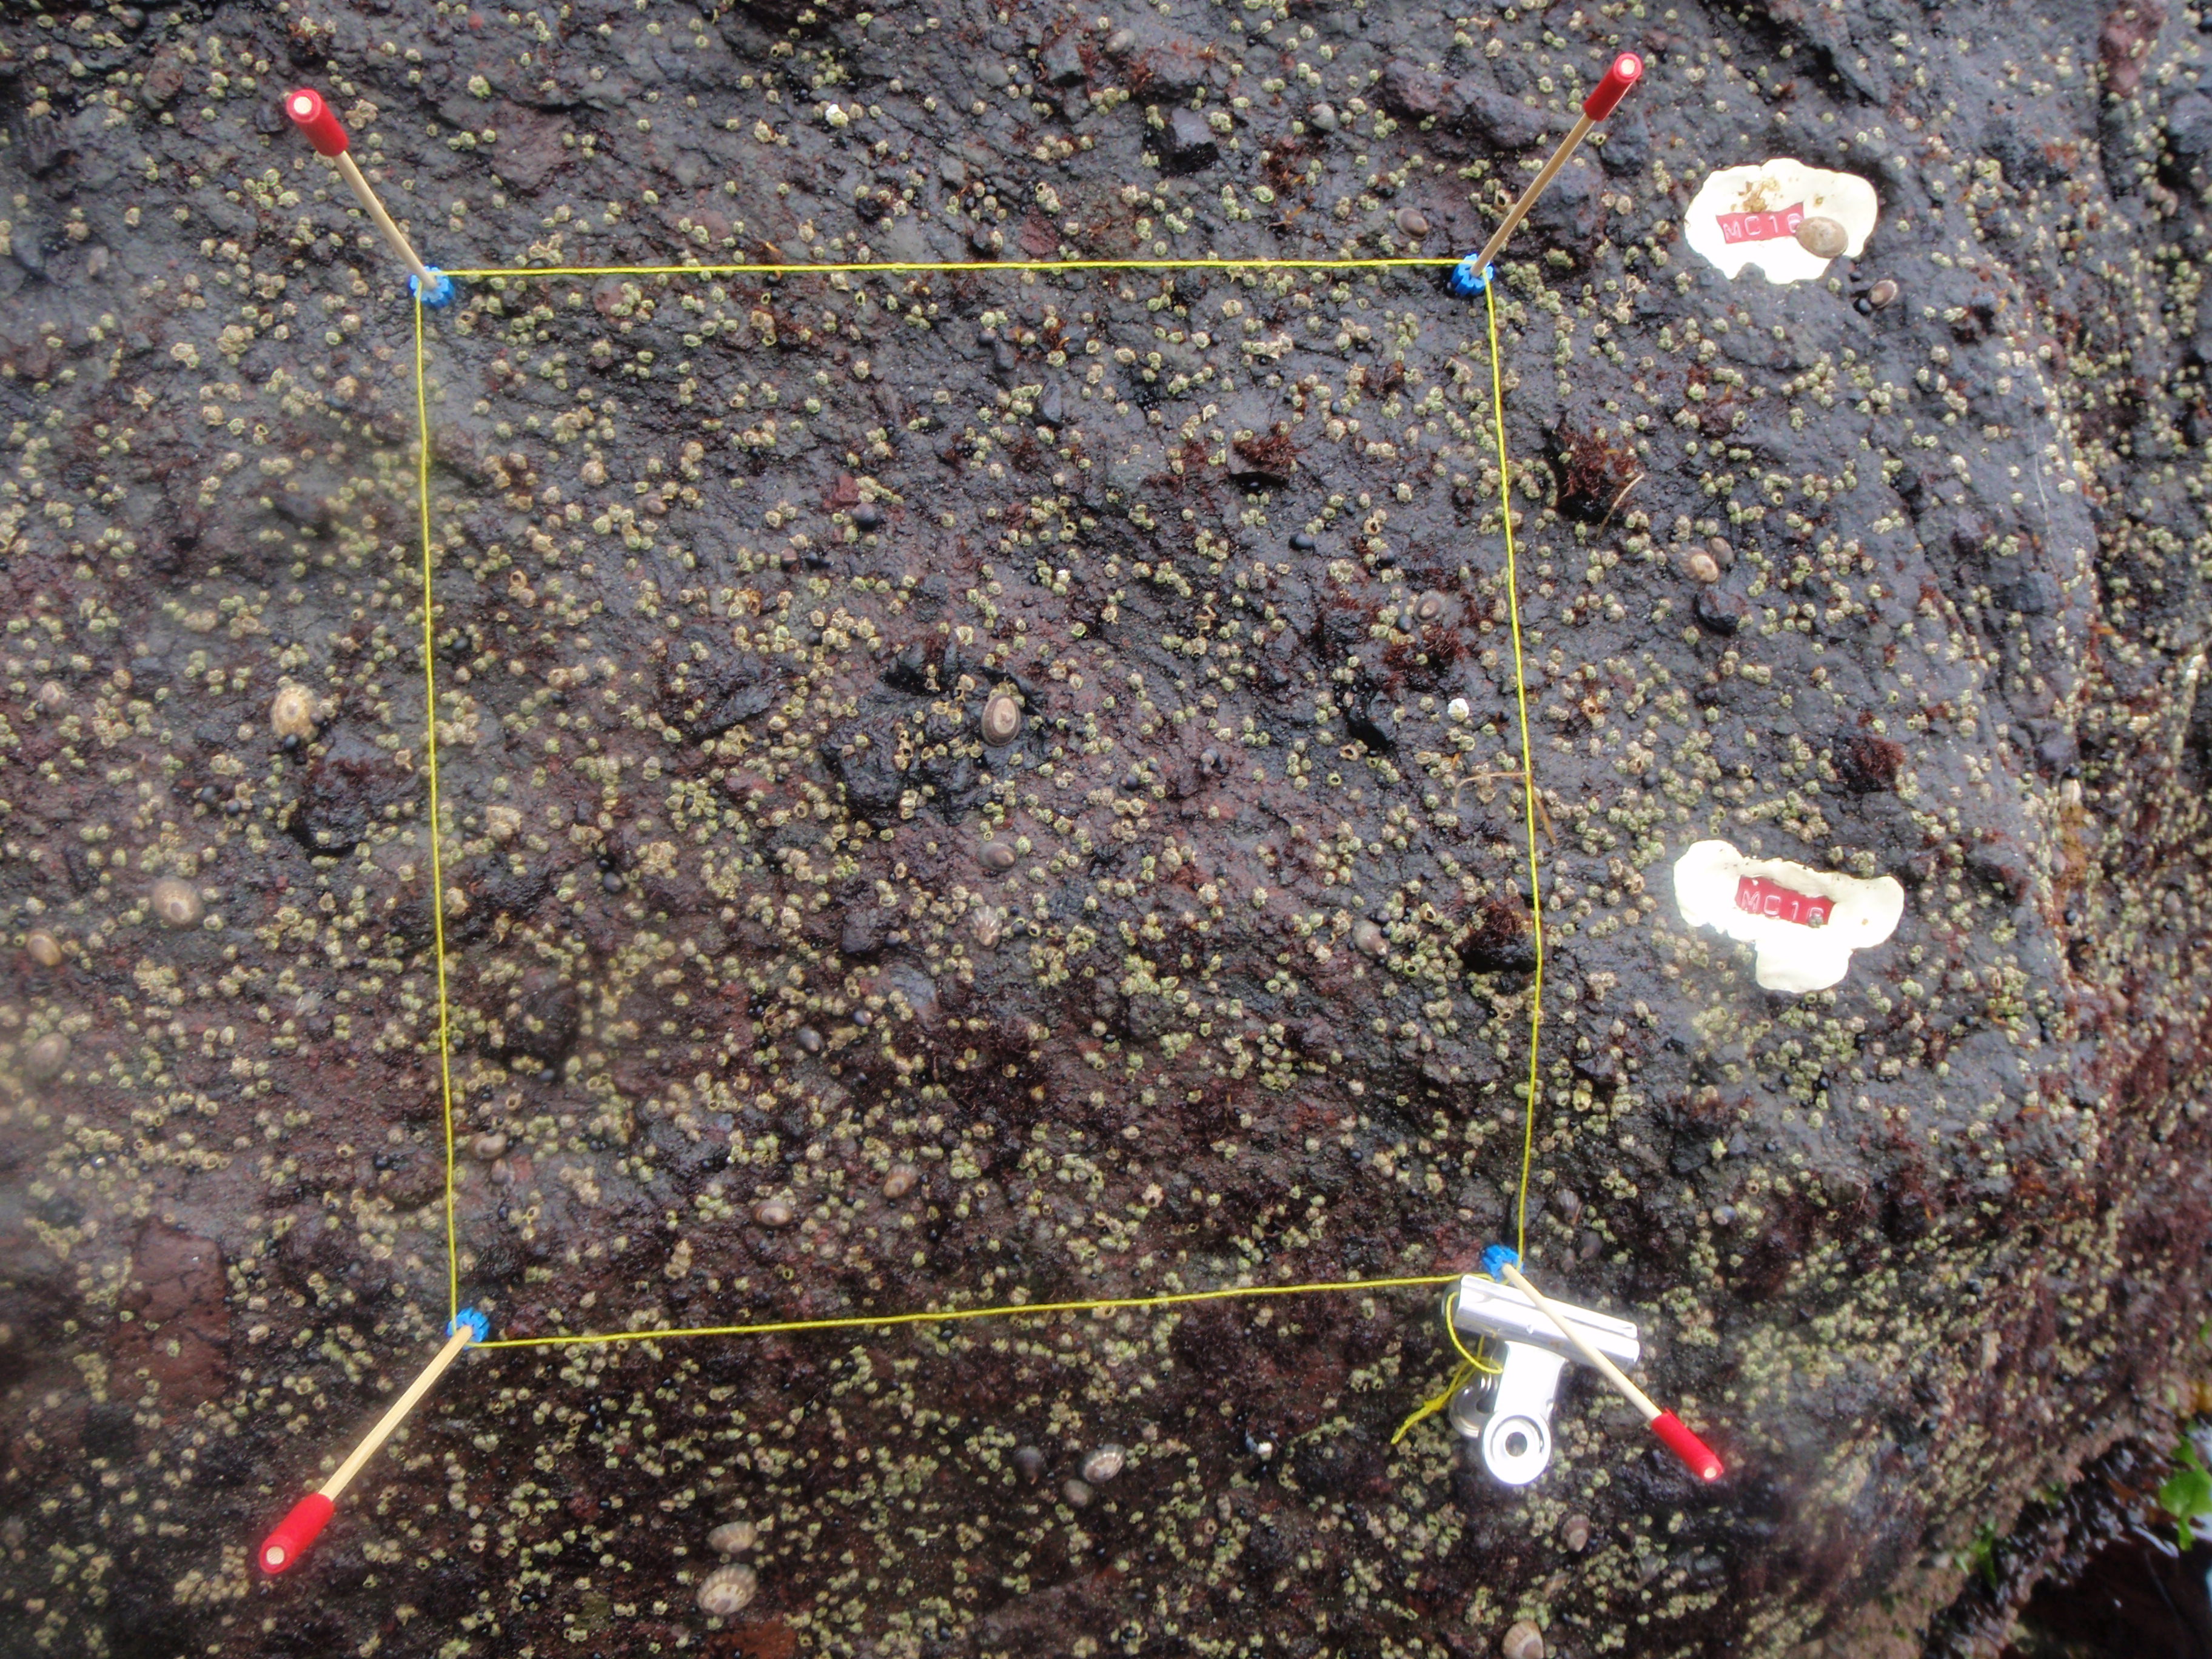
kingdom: Animalia
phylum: Arthropoda
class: Maxillopoda
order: Sessilia
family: Chthamalidae
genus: Chthamalus
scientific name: Chthamalus dalli
